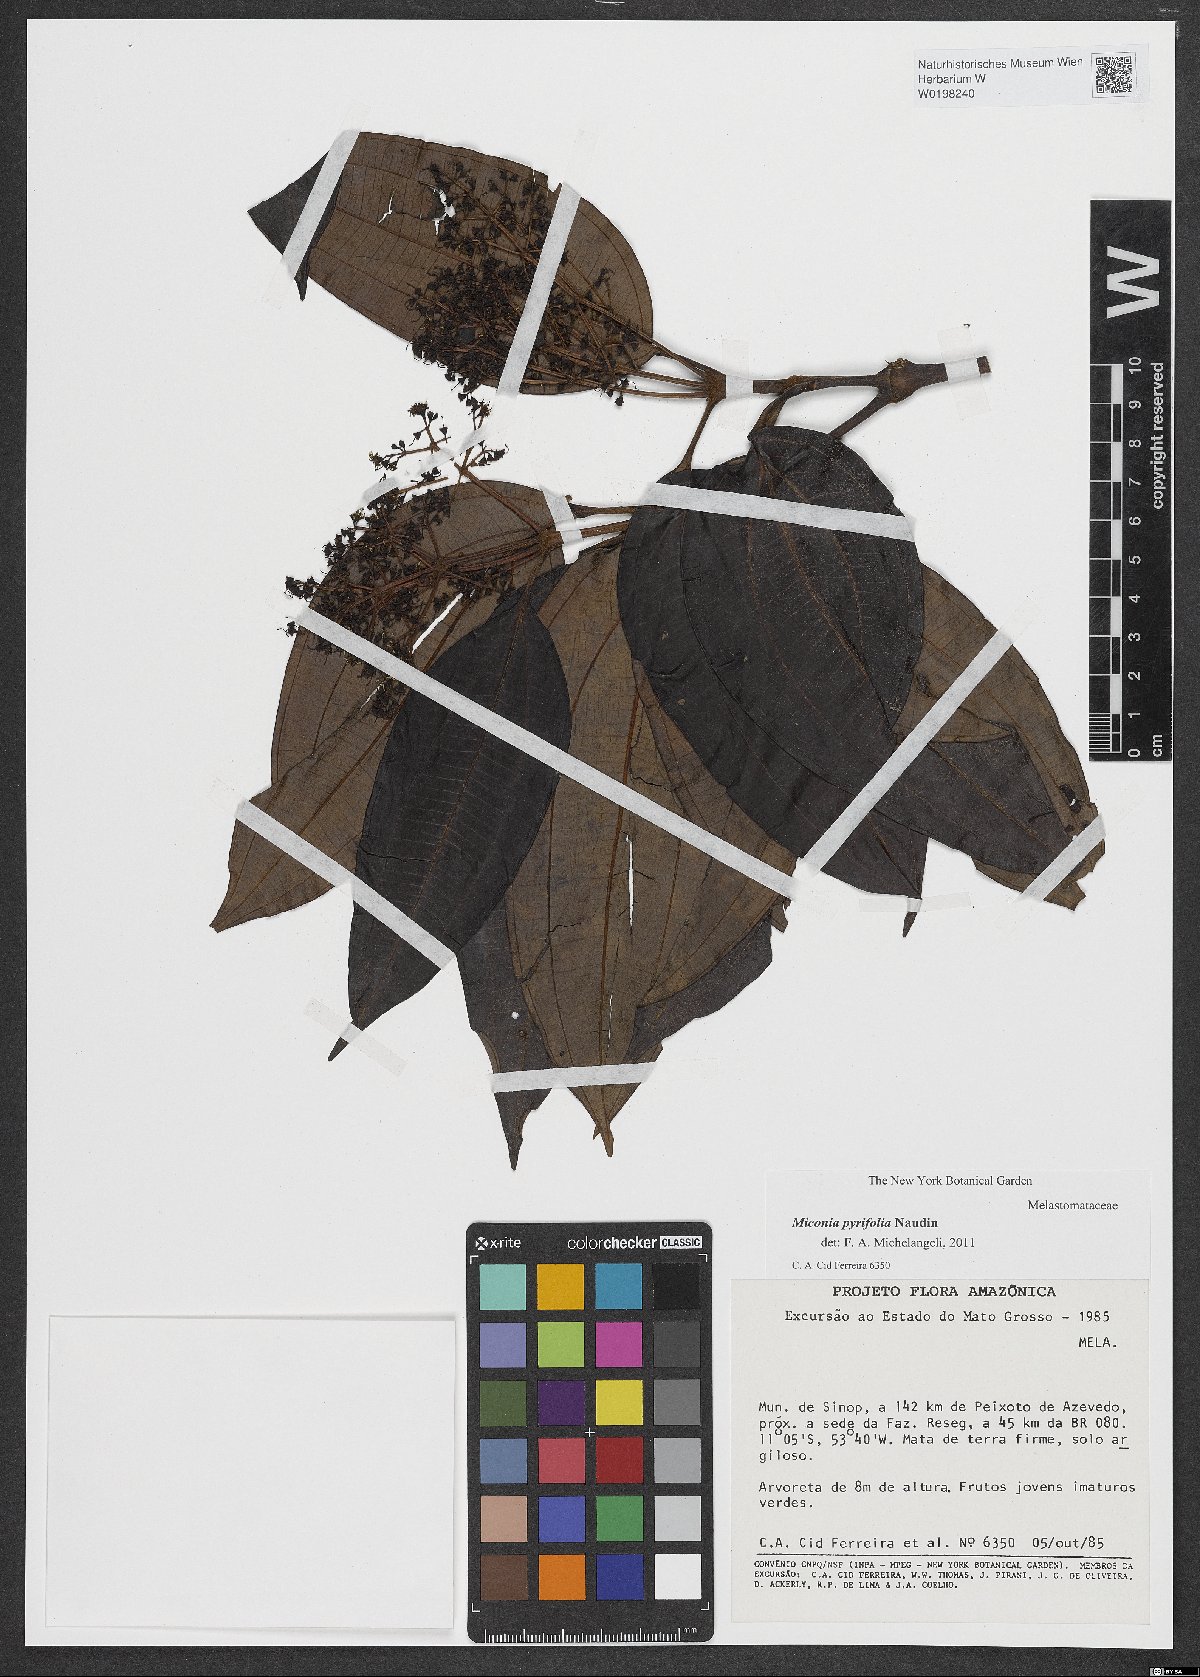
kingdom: Plantae
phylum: Tracheophyta
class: Magnoliopsida
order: Myrtales
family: Melastomataceae
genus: Miconia
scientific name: Miconia pyrifolia
